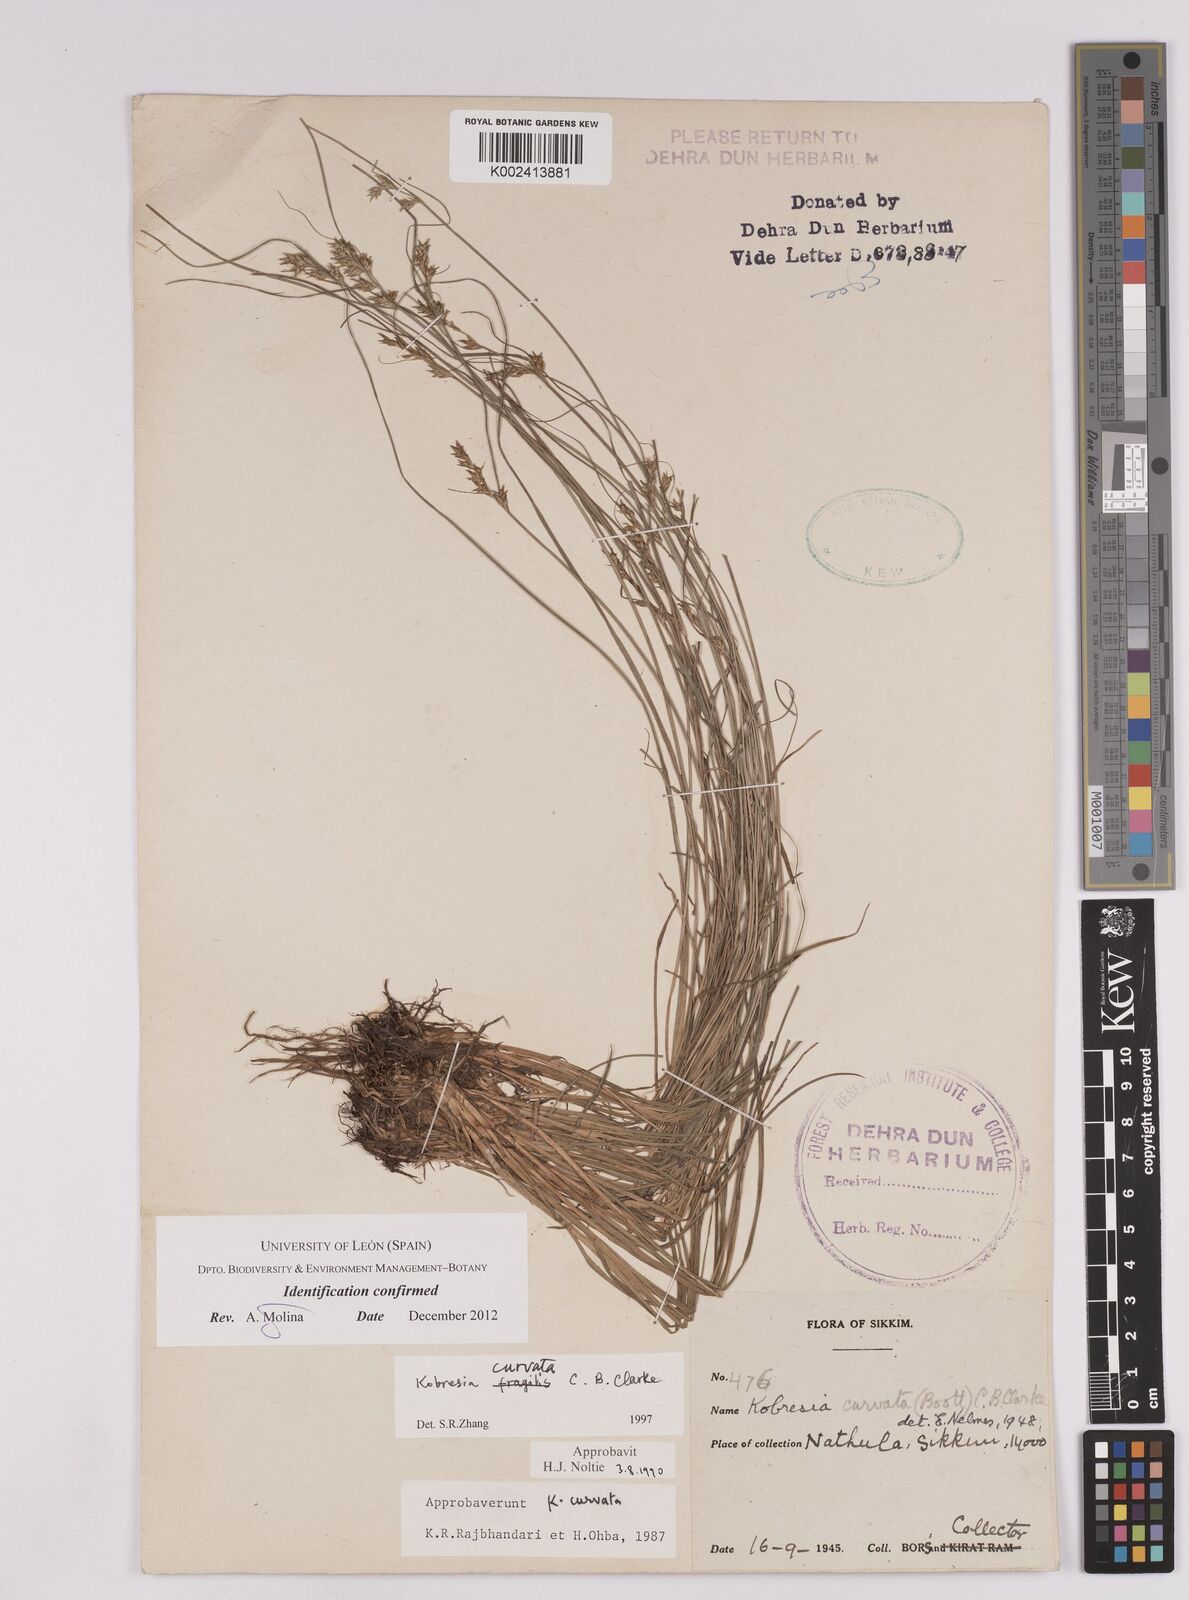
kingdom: Plantae
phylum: Tracheophyta
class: Liliopsida
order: Poales
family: Cyperaceae
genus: Carex
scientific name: Carex bonatiana
